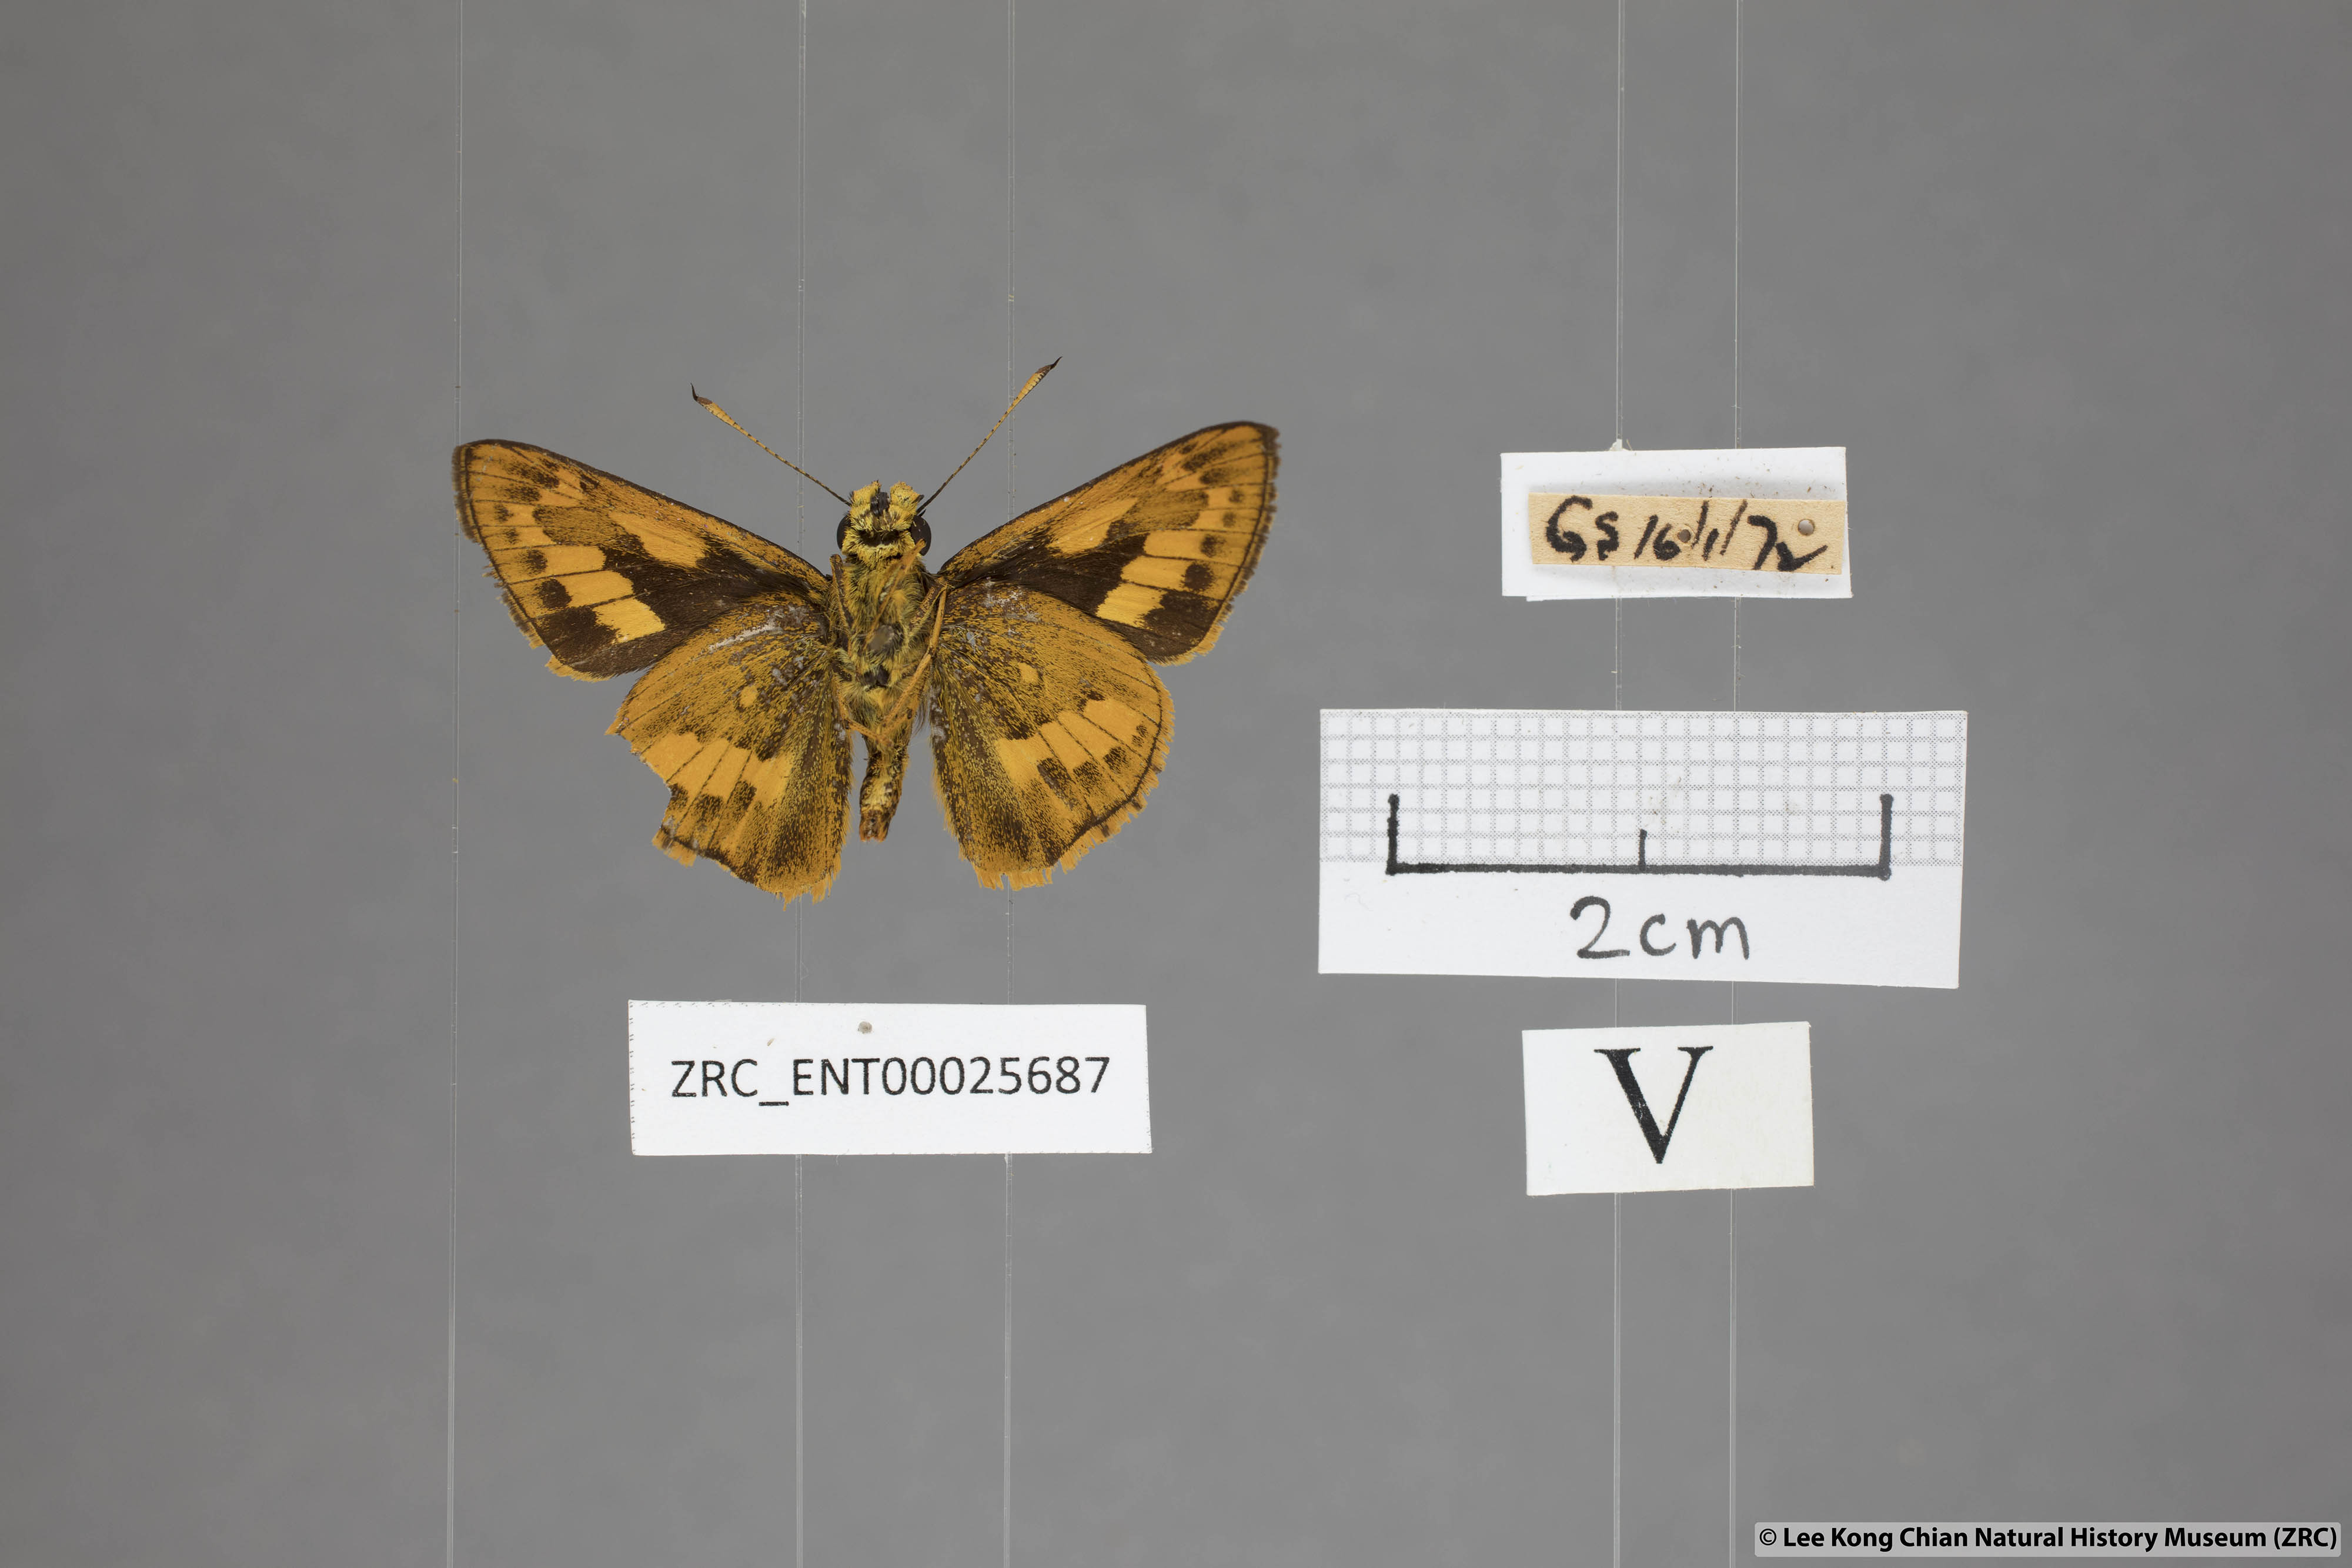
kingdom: Animalia
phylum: Arthropoda
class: Insecta
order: Lepidoptera
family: Hesperiidae
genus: Telicota
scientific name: Telicota ohara
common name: Dark palm dart
